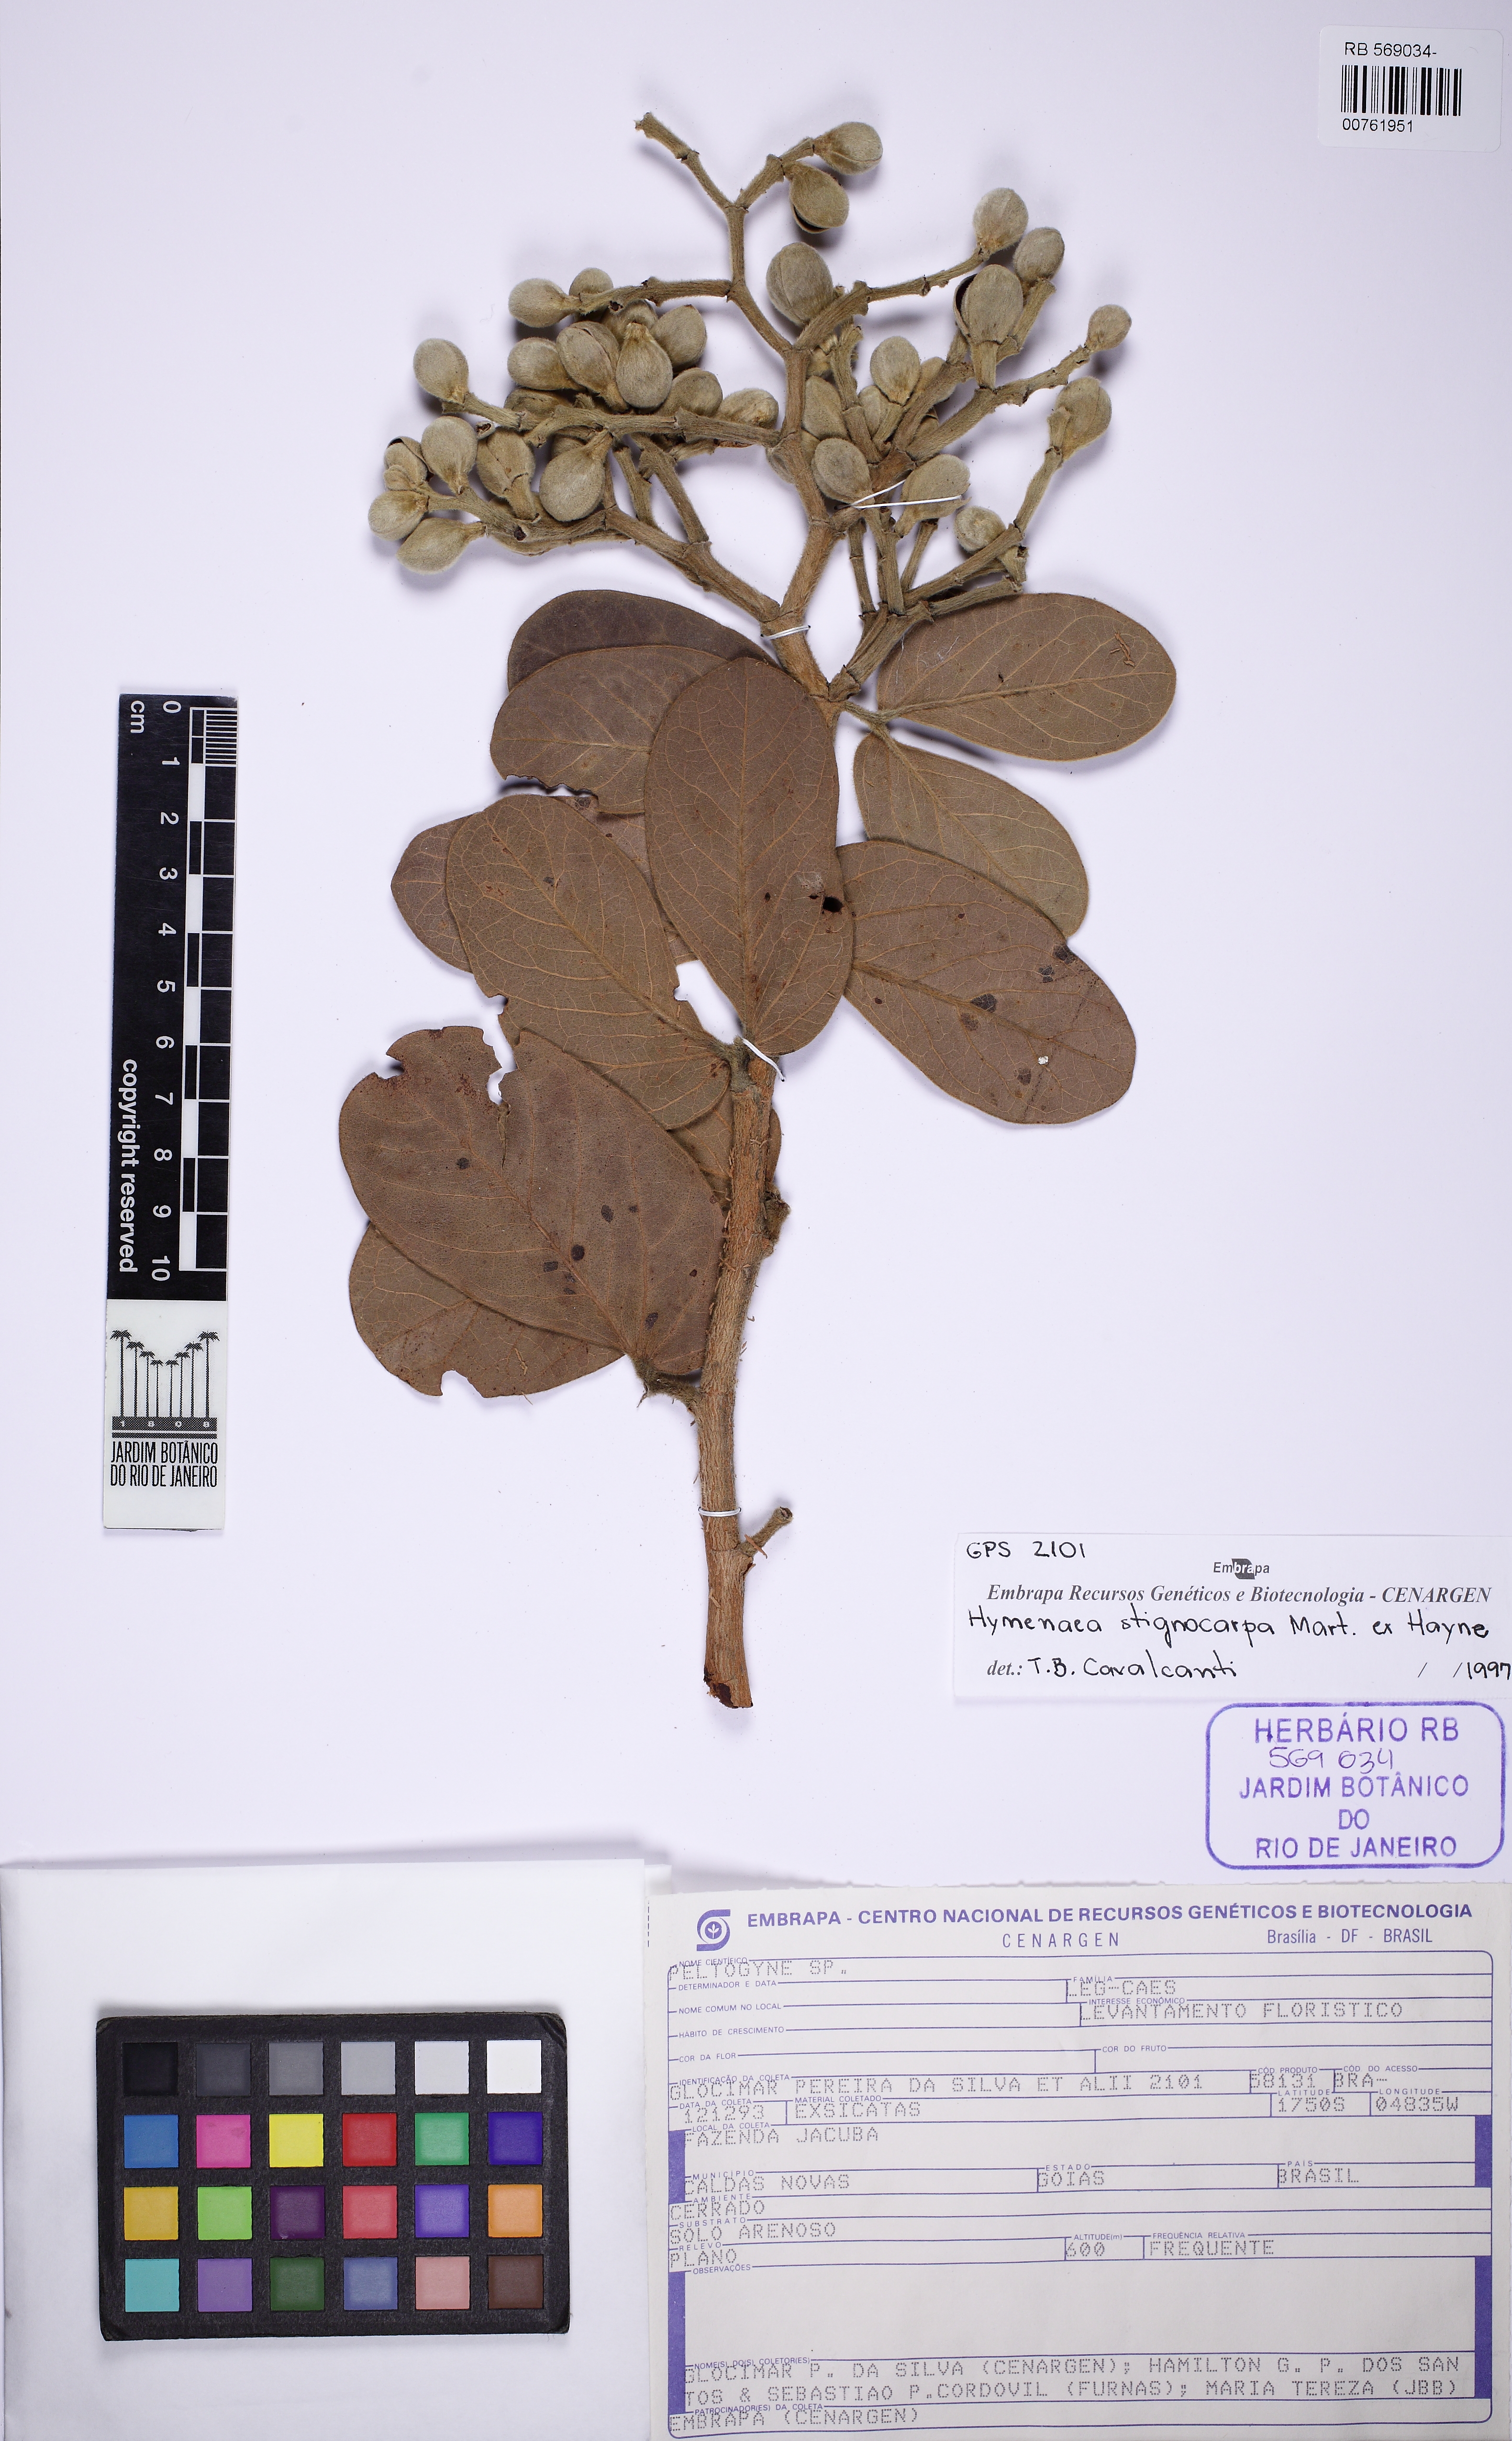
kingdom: Plantae
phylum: Tracheophyta
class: Magnoliopsida
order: Fabales
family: Fabaceae
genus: Hymenaea
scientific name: Hymenaea stigonocarpa
